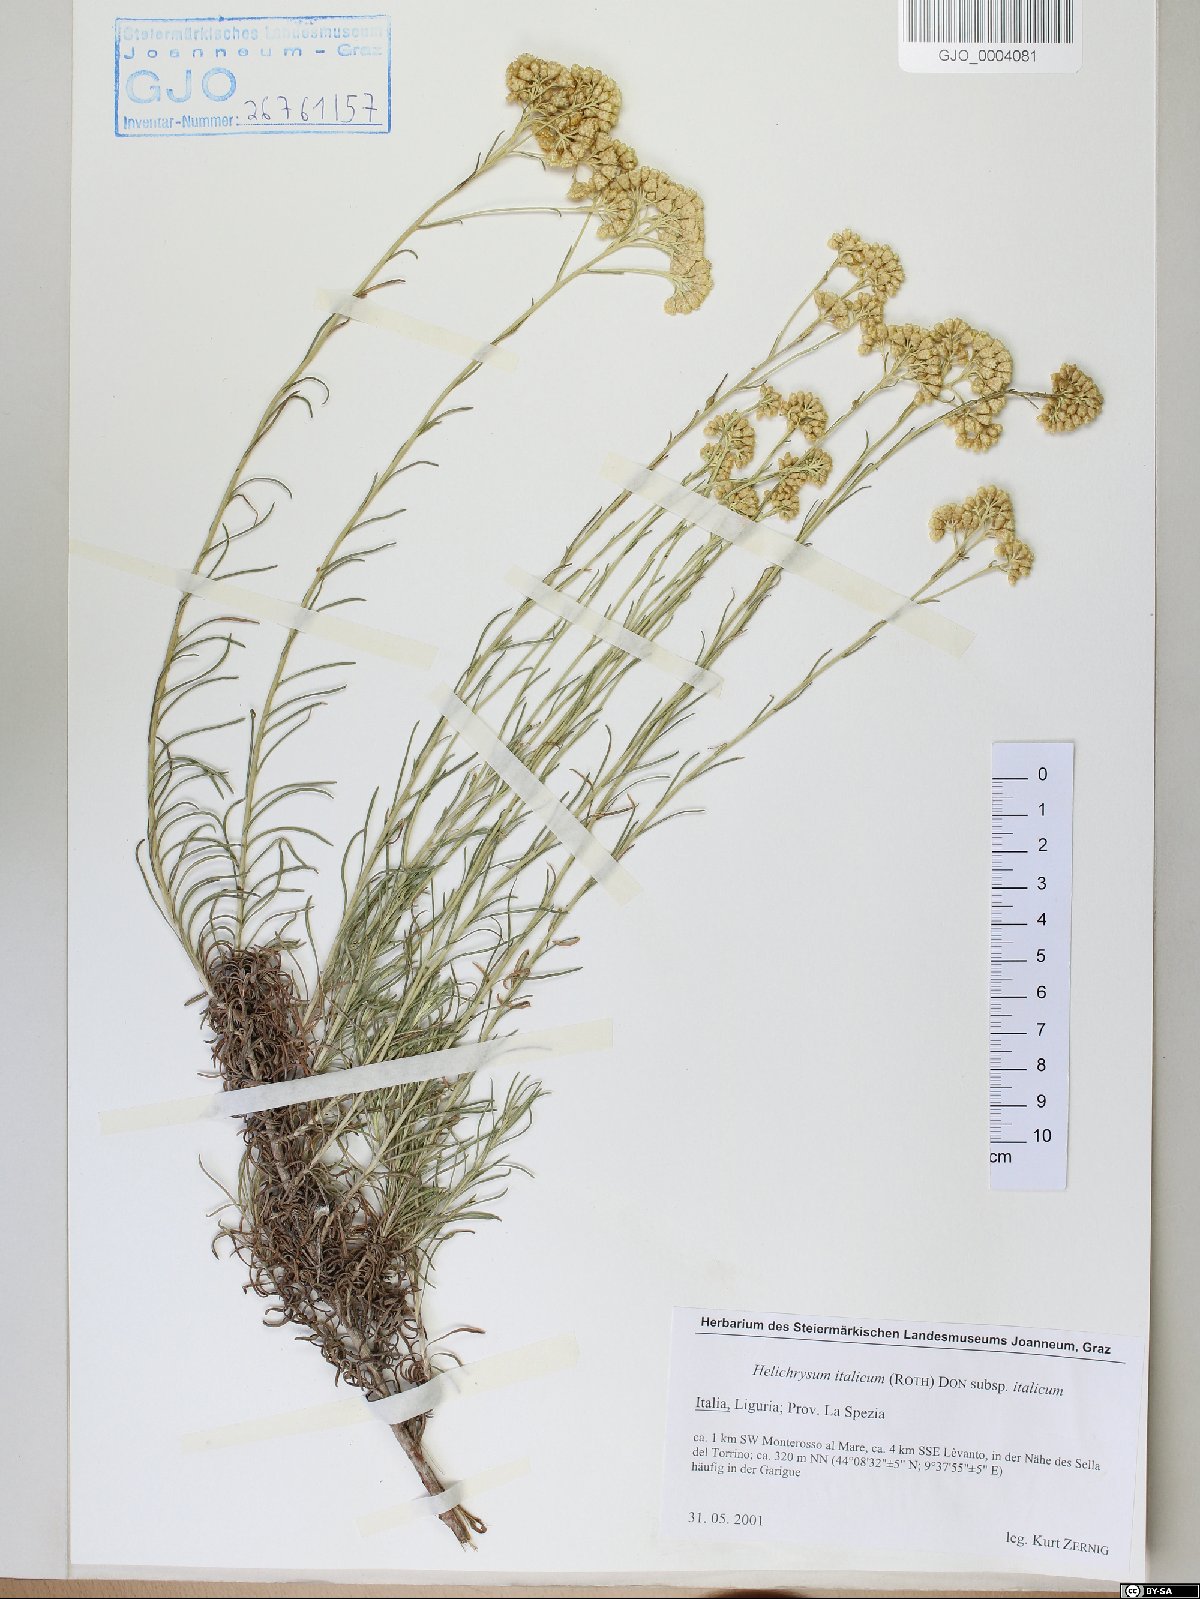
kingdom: Plantae
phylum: Tracheophyta
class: Magnoliopsida
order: Asterales
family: Asteraceae
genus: Helichrysum
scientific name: Helichrysum italicum
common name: Curryplant
